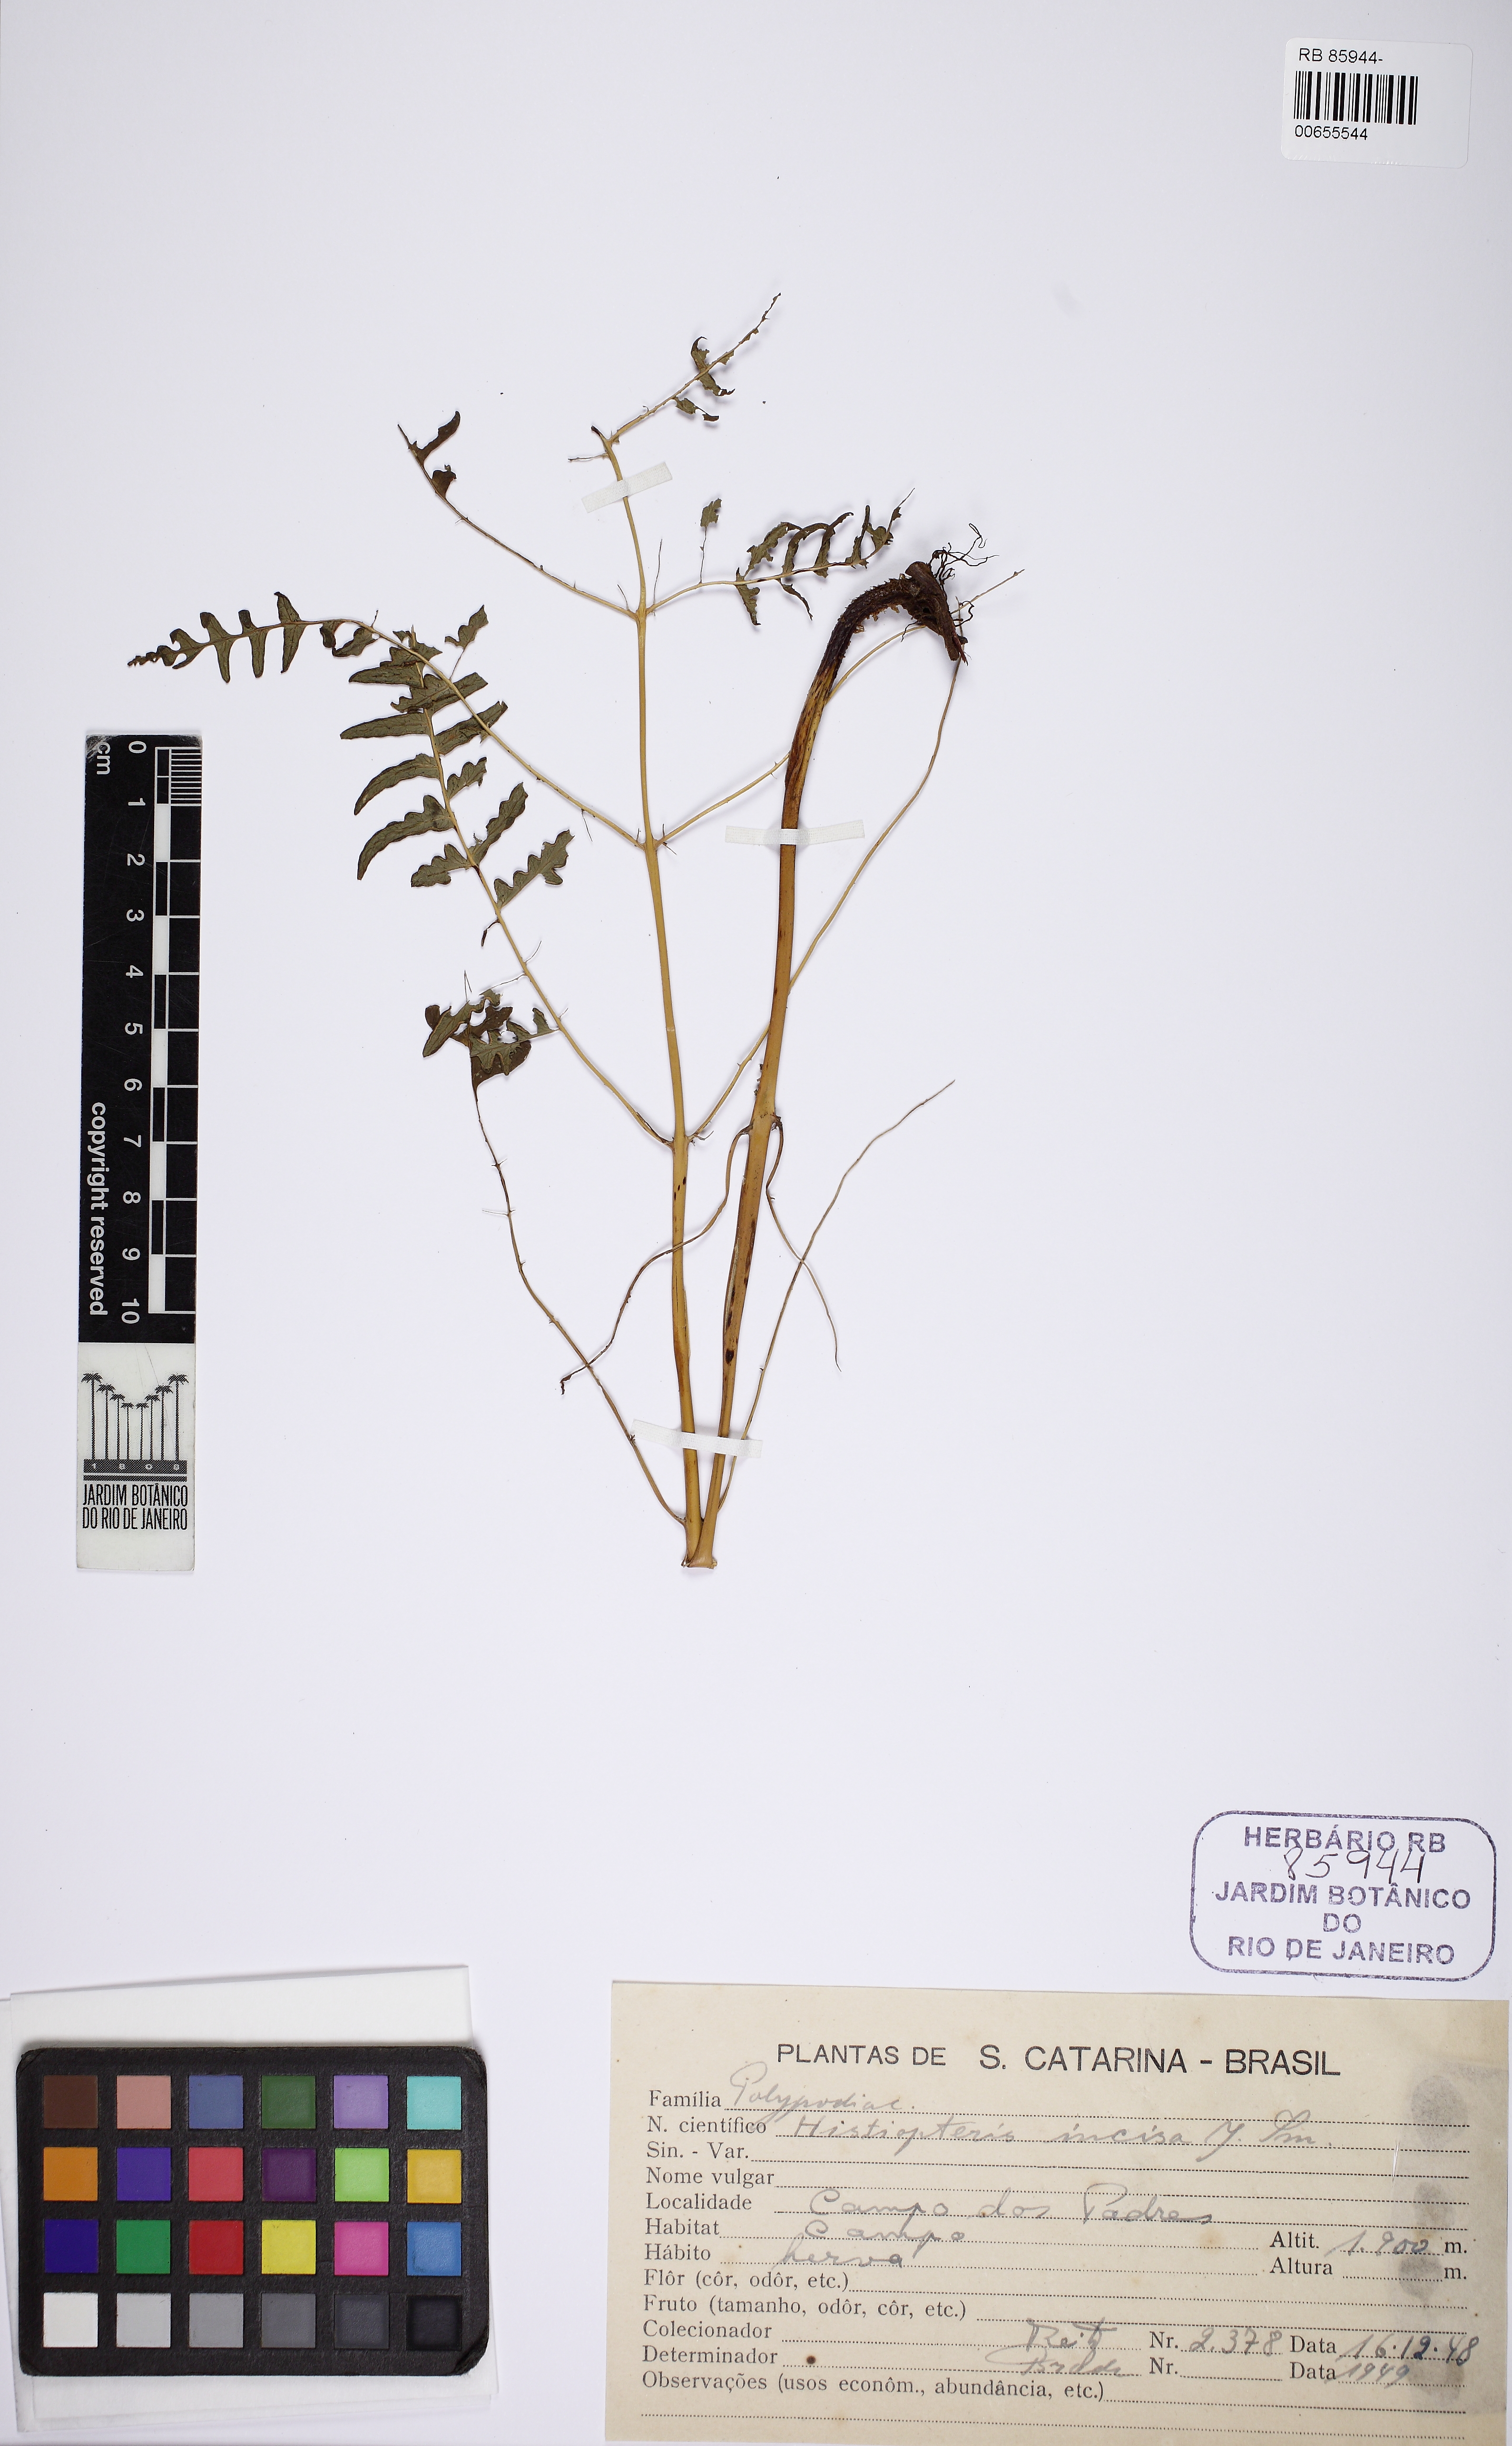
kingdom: Plantae
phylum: Tracheophyta
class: Polypodiopsida
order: Polypodiales
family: Dennstaedtiaceae
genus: Histiopteris
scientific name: Histiopteris incisa
